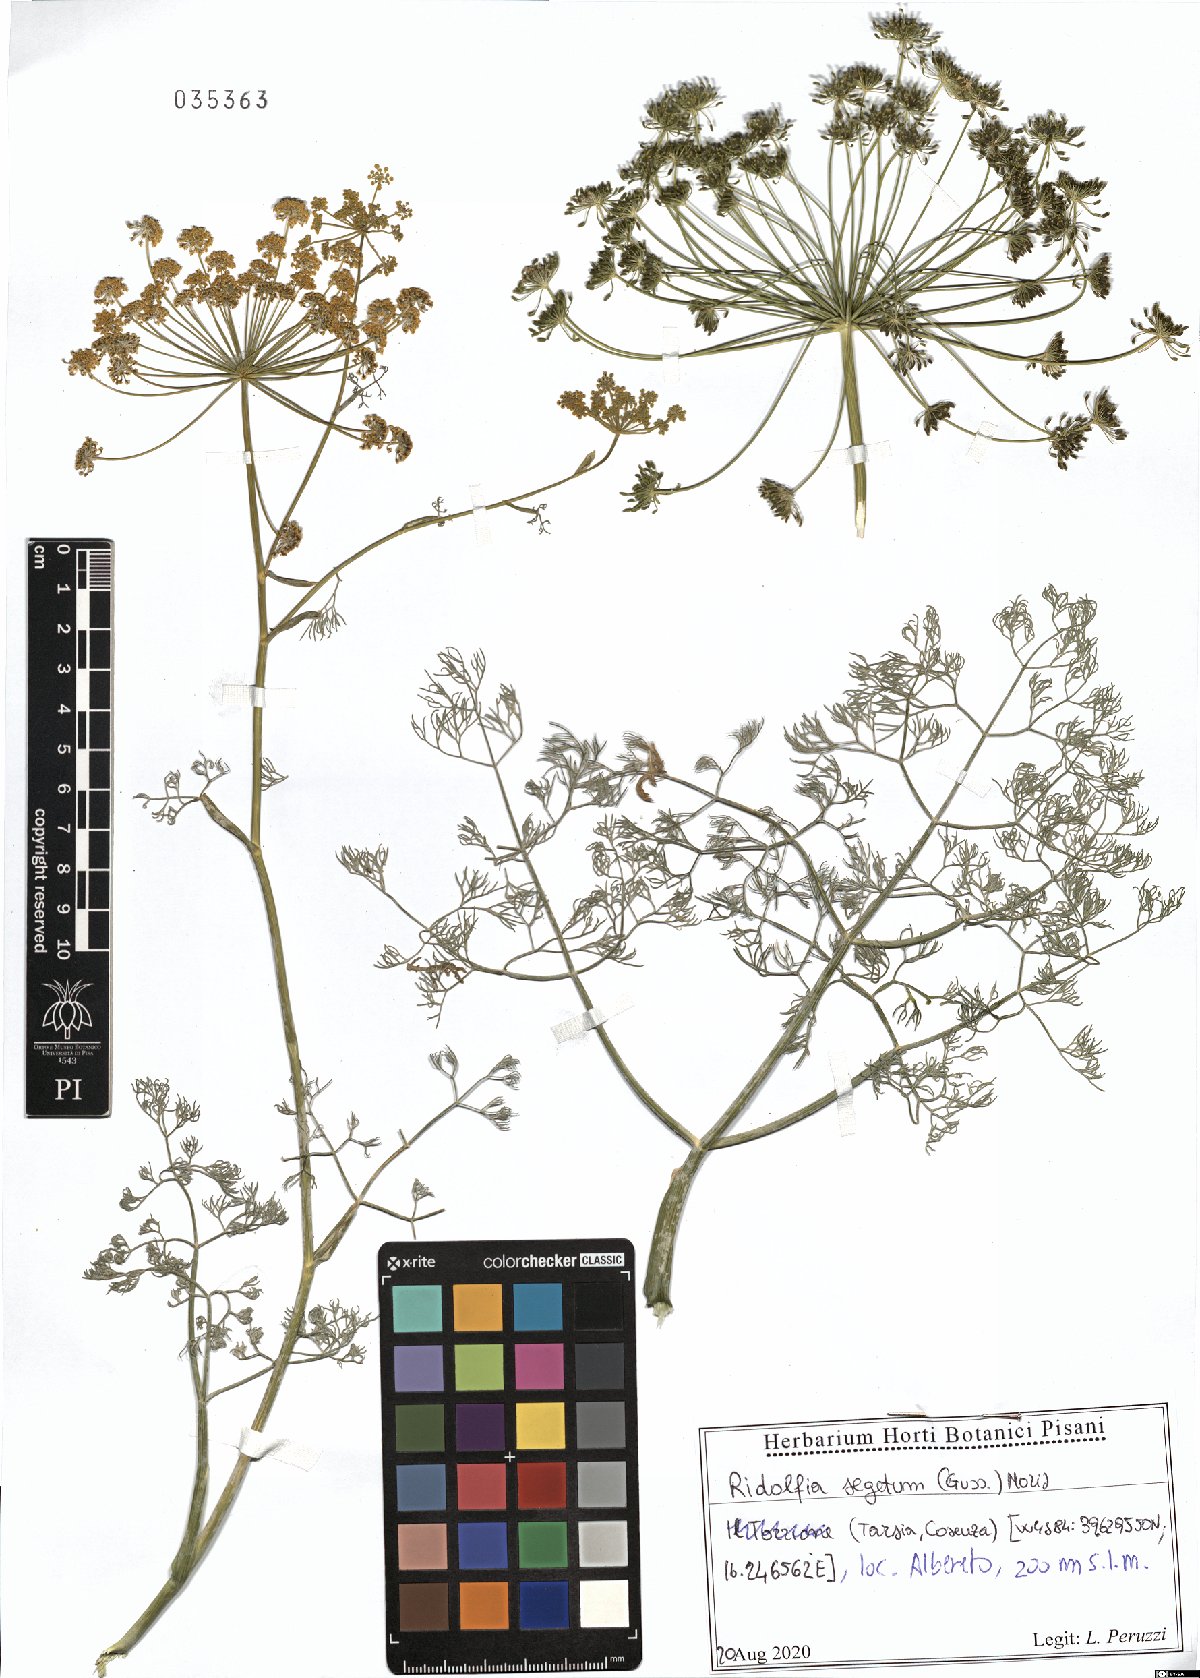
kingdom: Plantae
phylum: Tracheophyta
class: Magnoliopsida
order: Apiales
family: Apiaceae
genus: Anethum
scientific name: Anethum ridolfia
